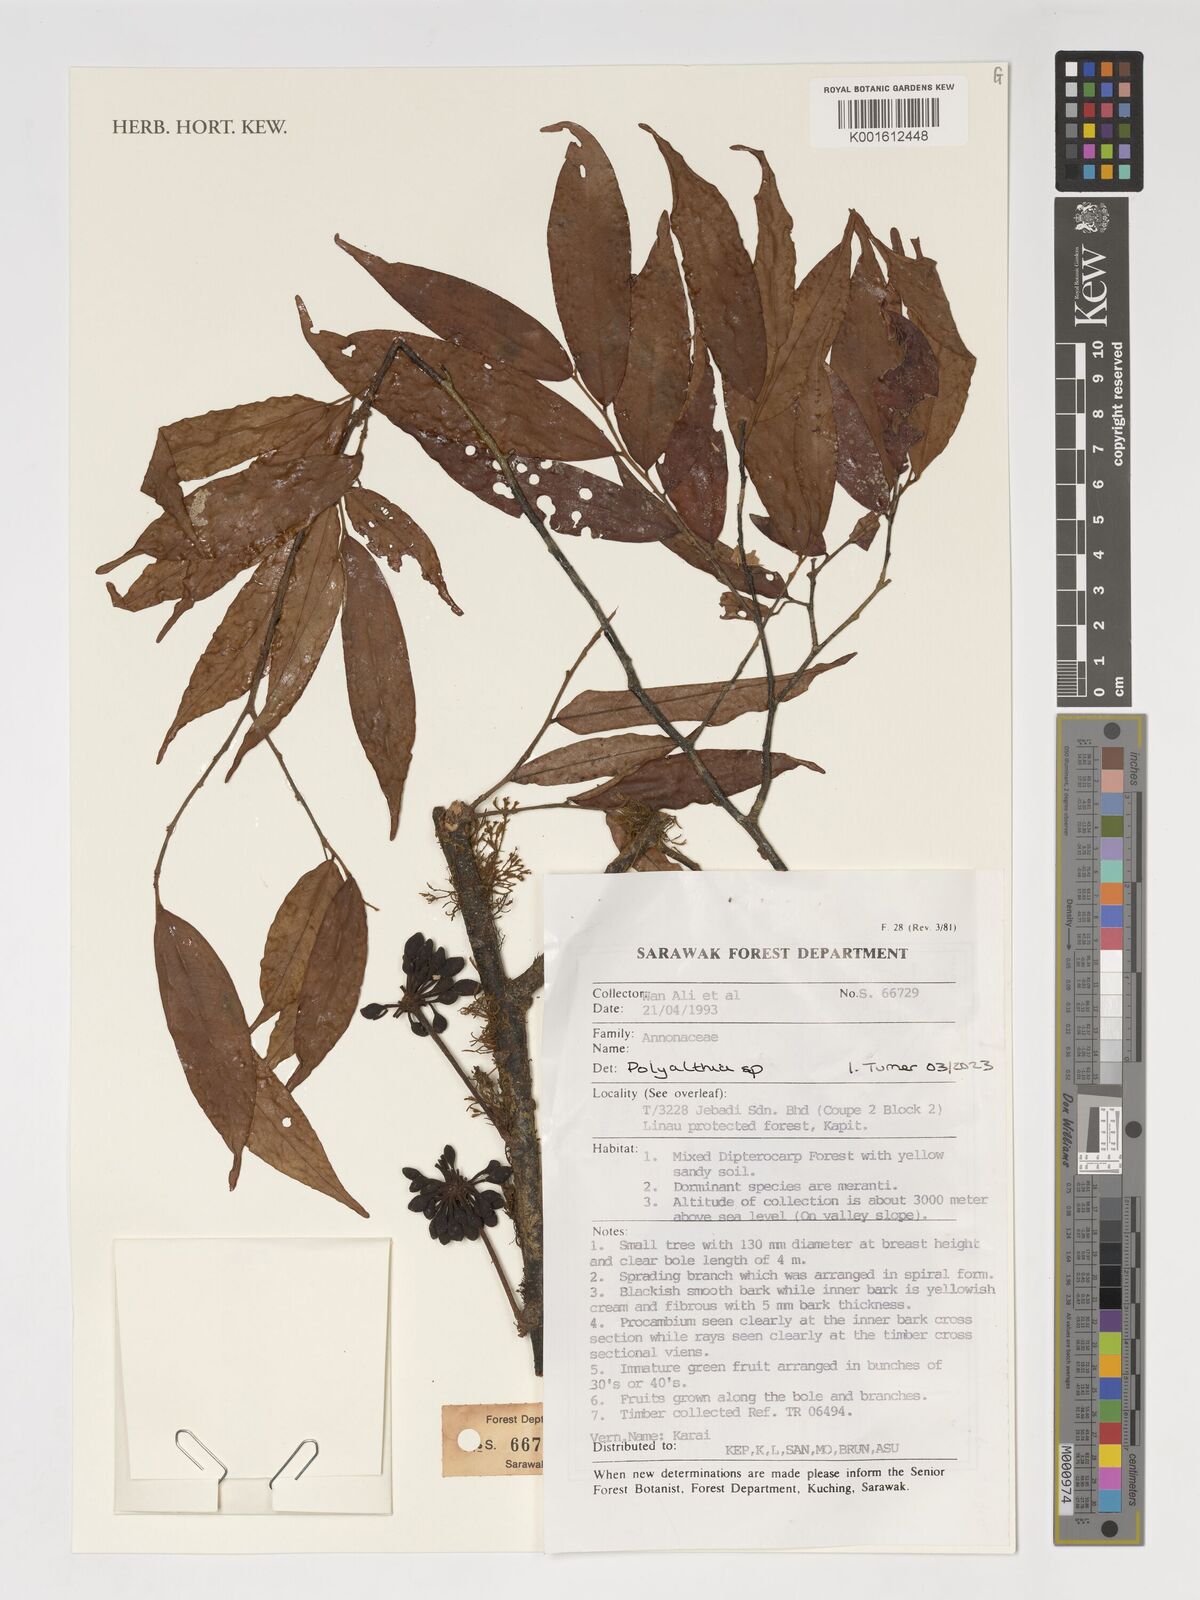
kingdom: Plantae
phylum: Tracheophyta
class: Magnoliopsida
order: Magnoliales
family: Annonaceae
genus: Polyalthia
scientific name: Polyalthia
